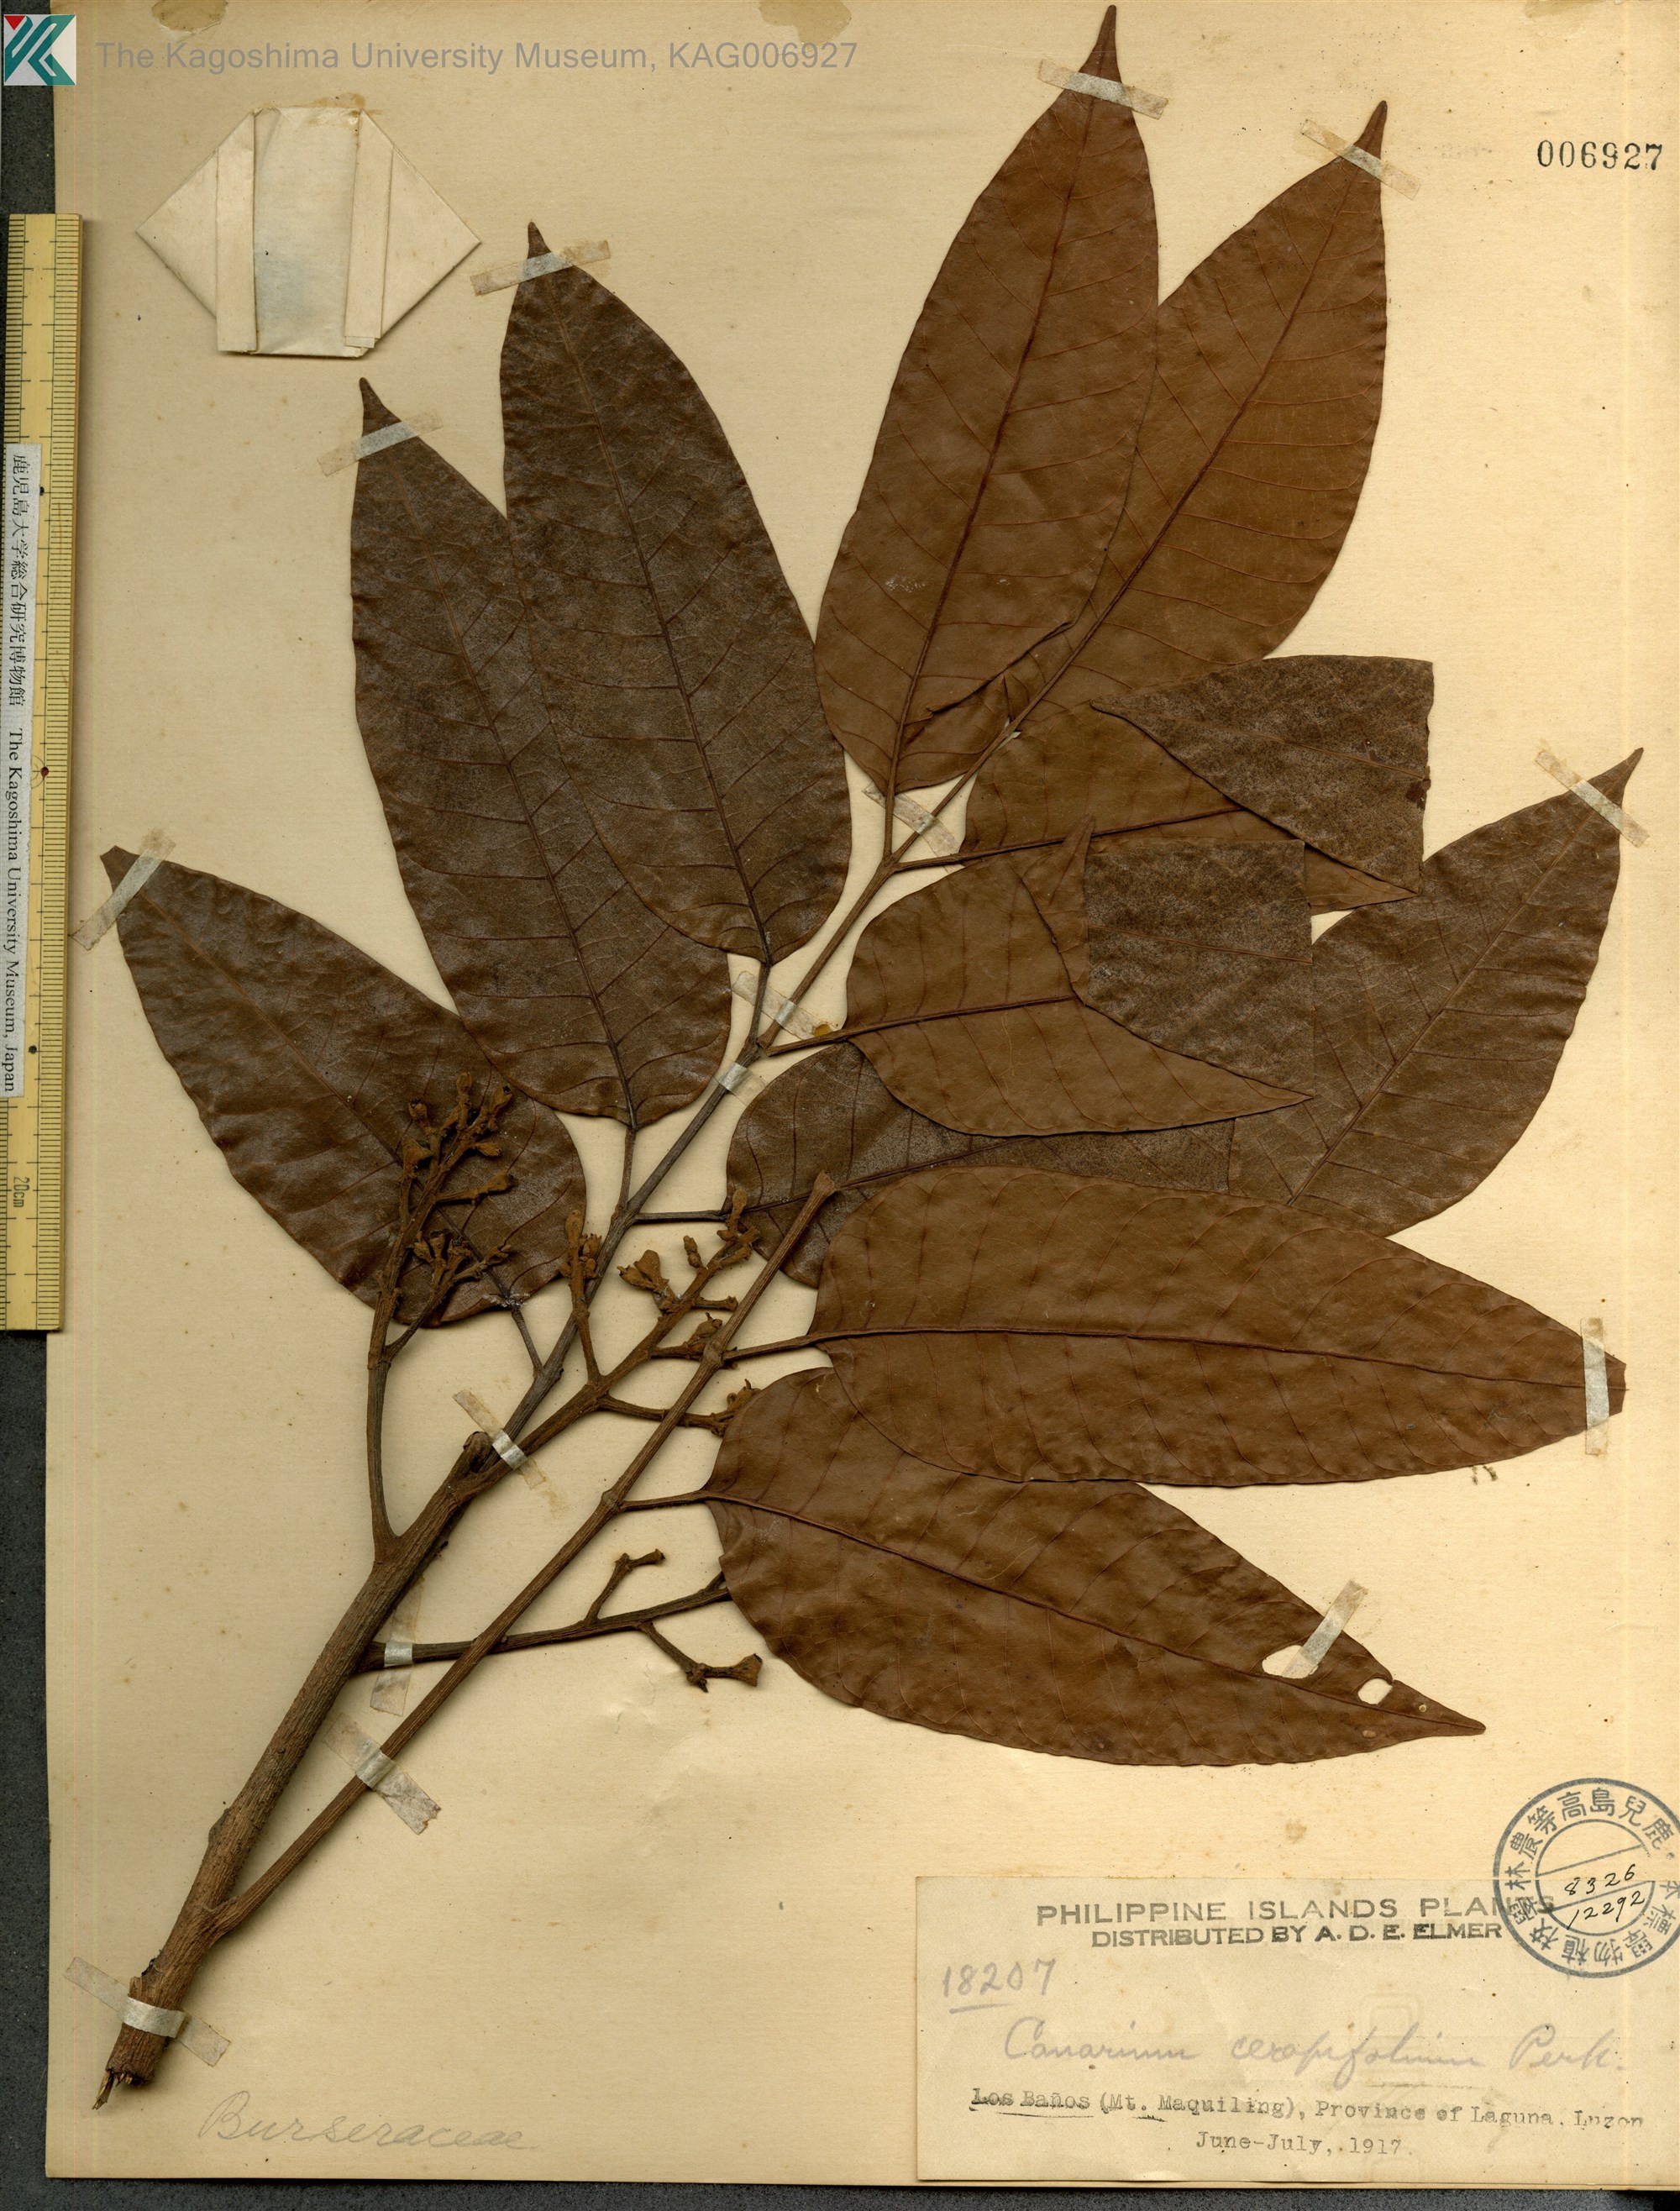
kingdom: Plantae
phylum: Tracheophyta
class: Magnoliopsida
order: Sapindales
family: Burseraceae
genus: Canarium
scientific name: Canarium luzonicum
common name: Manila elemi-tree
